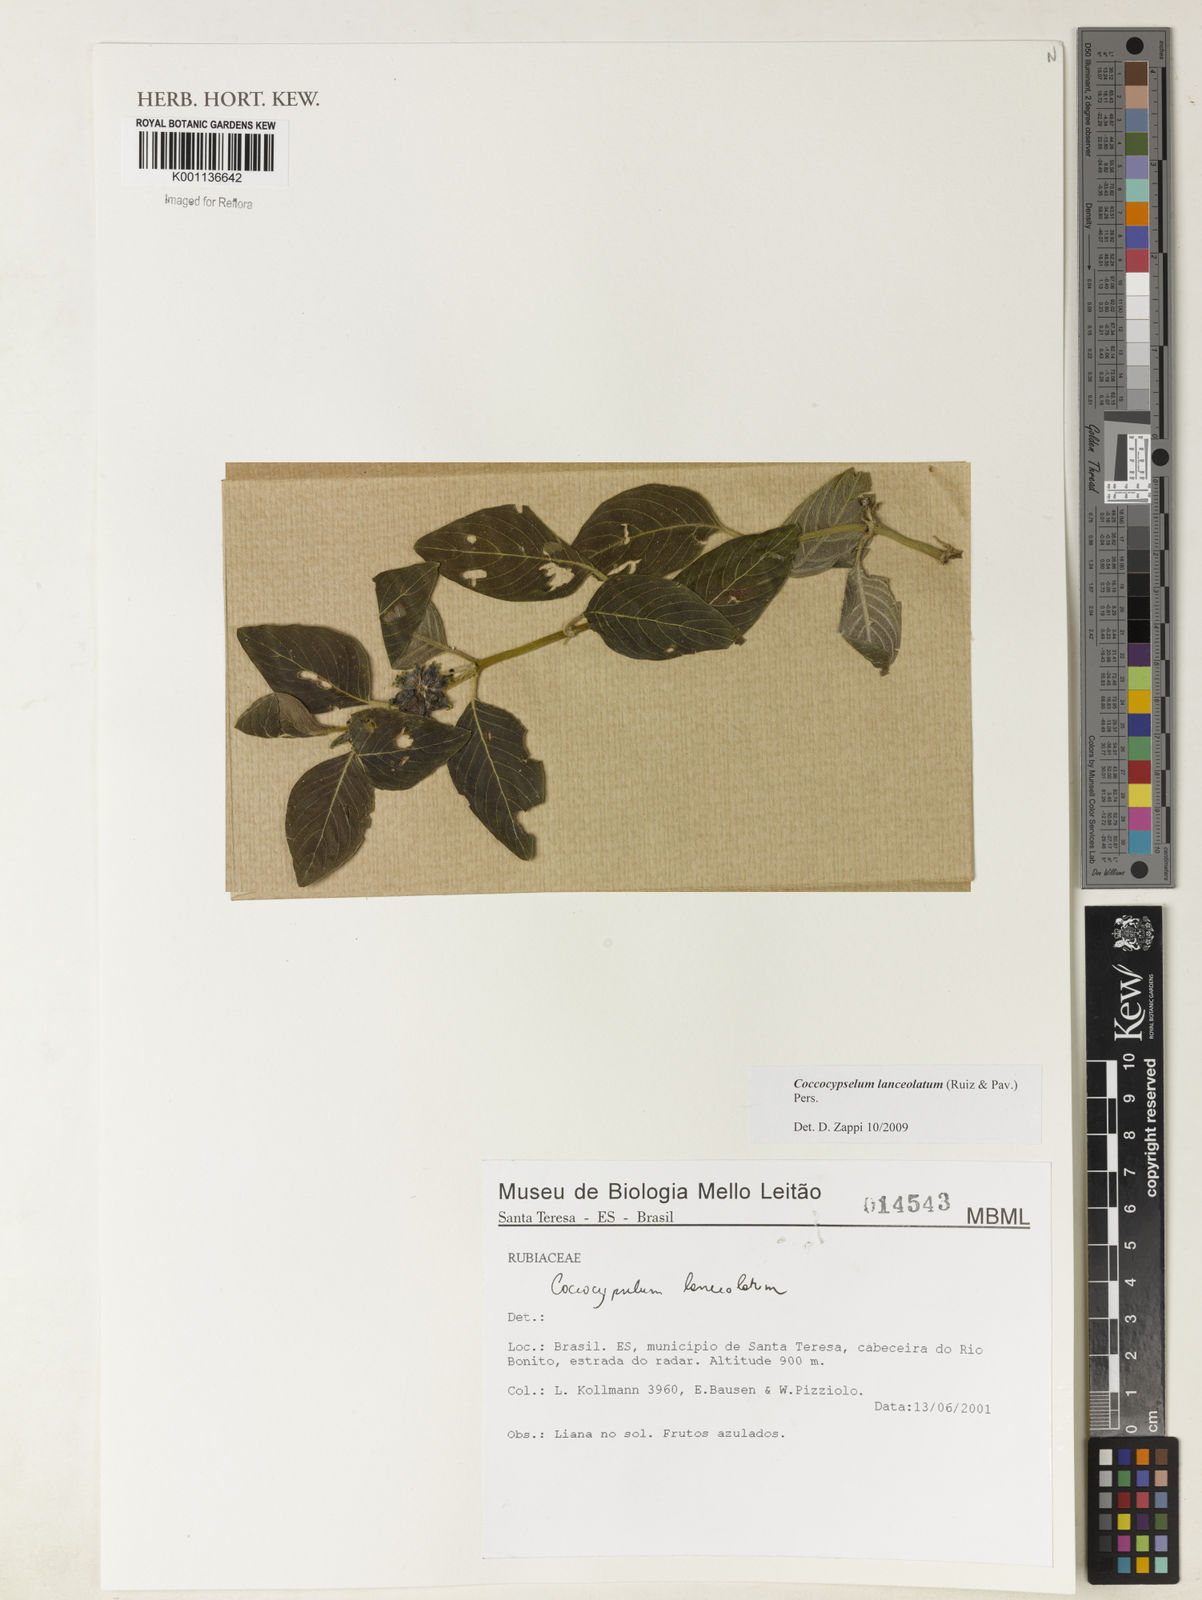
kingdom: Plantae
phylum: Tracheophyta
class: Magnoliopsida
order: Gentianales
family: Rubiaceae
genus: Coccocypselum
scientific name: Coccocypselum lanceolatum
